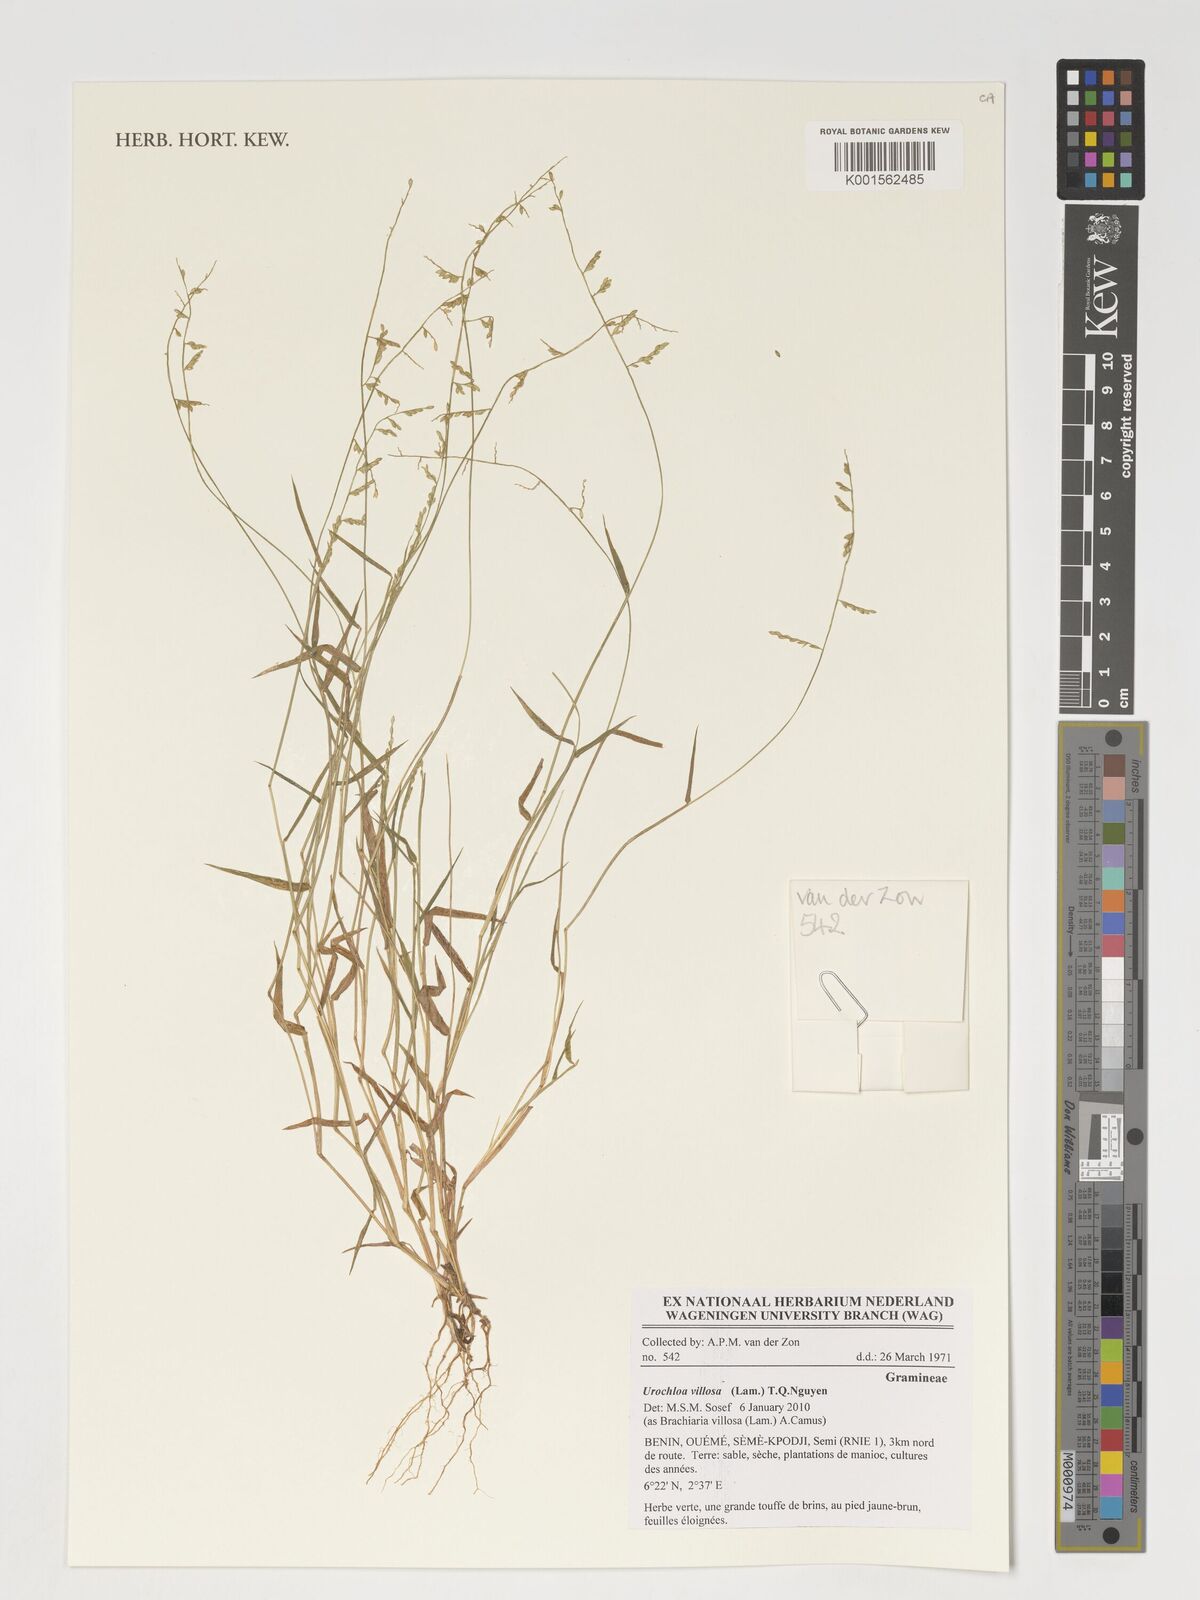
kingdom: Plantae
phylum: Tracheophyta
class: Liliopsida
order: Poales
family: Poaceae
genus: Urochloa
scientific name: Urochloa villosa
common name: Hairy signalgrass
